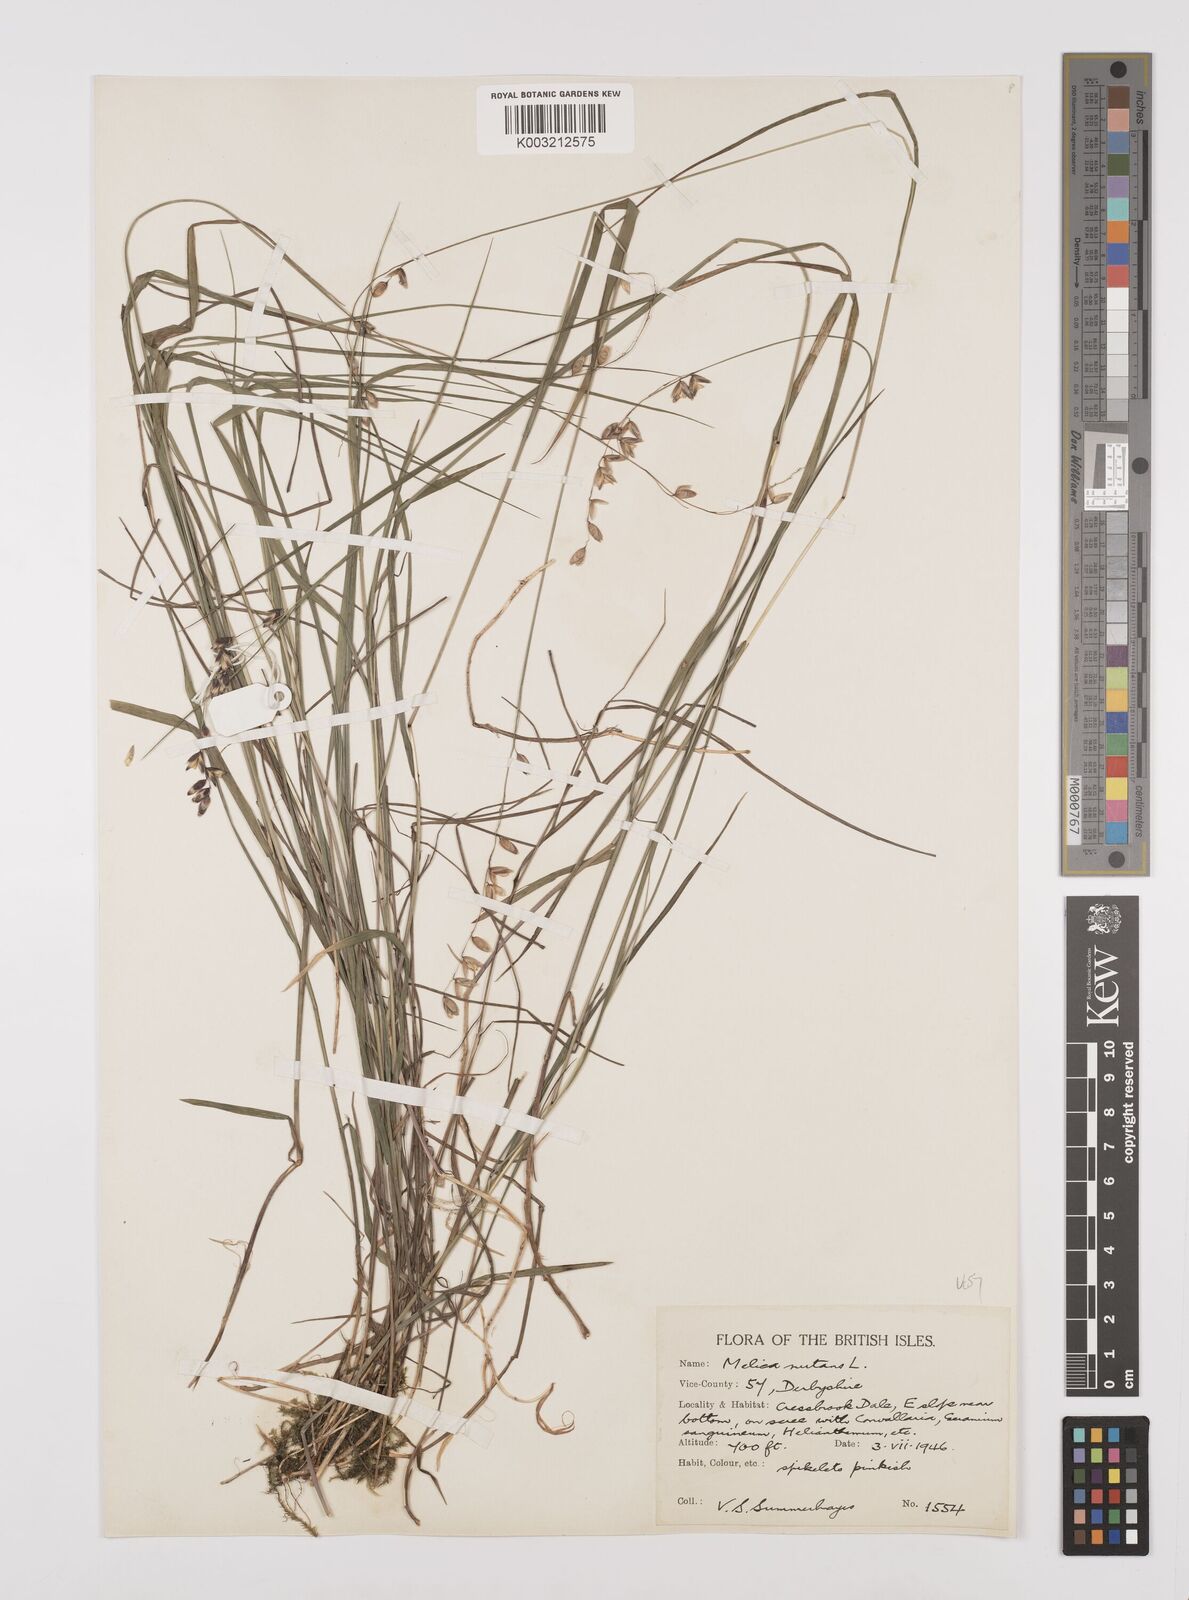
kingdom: Plantae
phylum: Tracheophyta
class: Liliopsida
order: Poales
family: Poaceae
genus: Melica
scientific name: Melica
